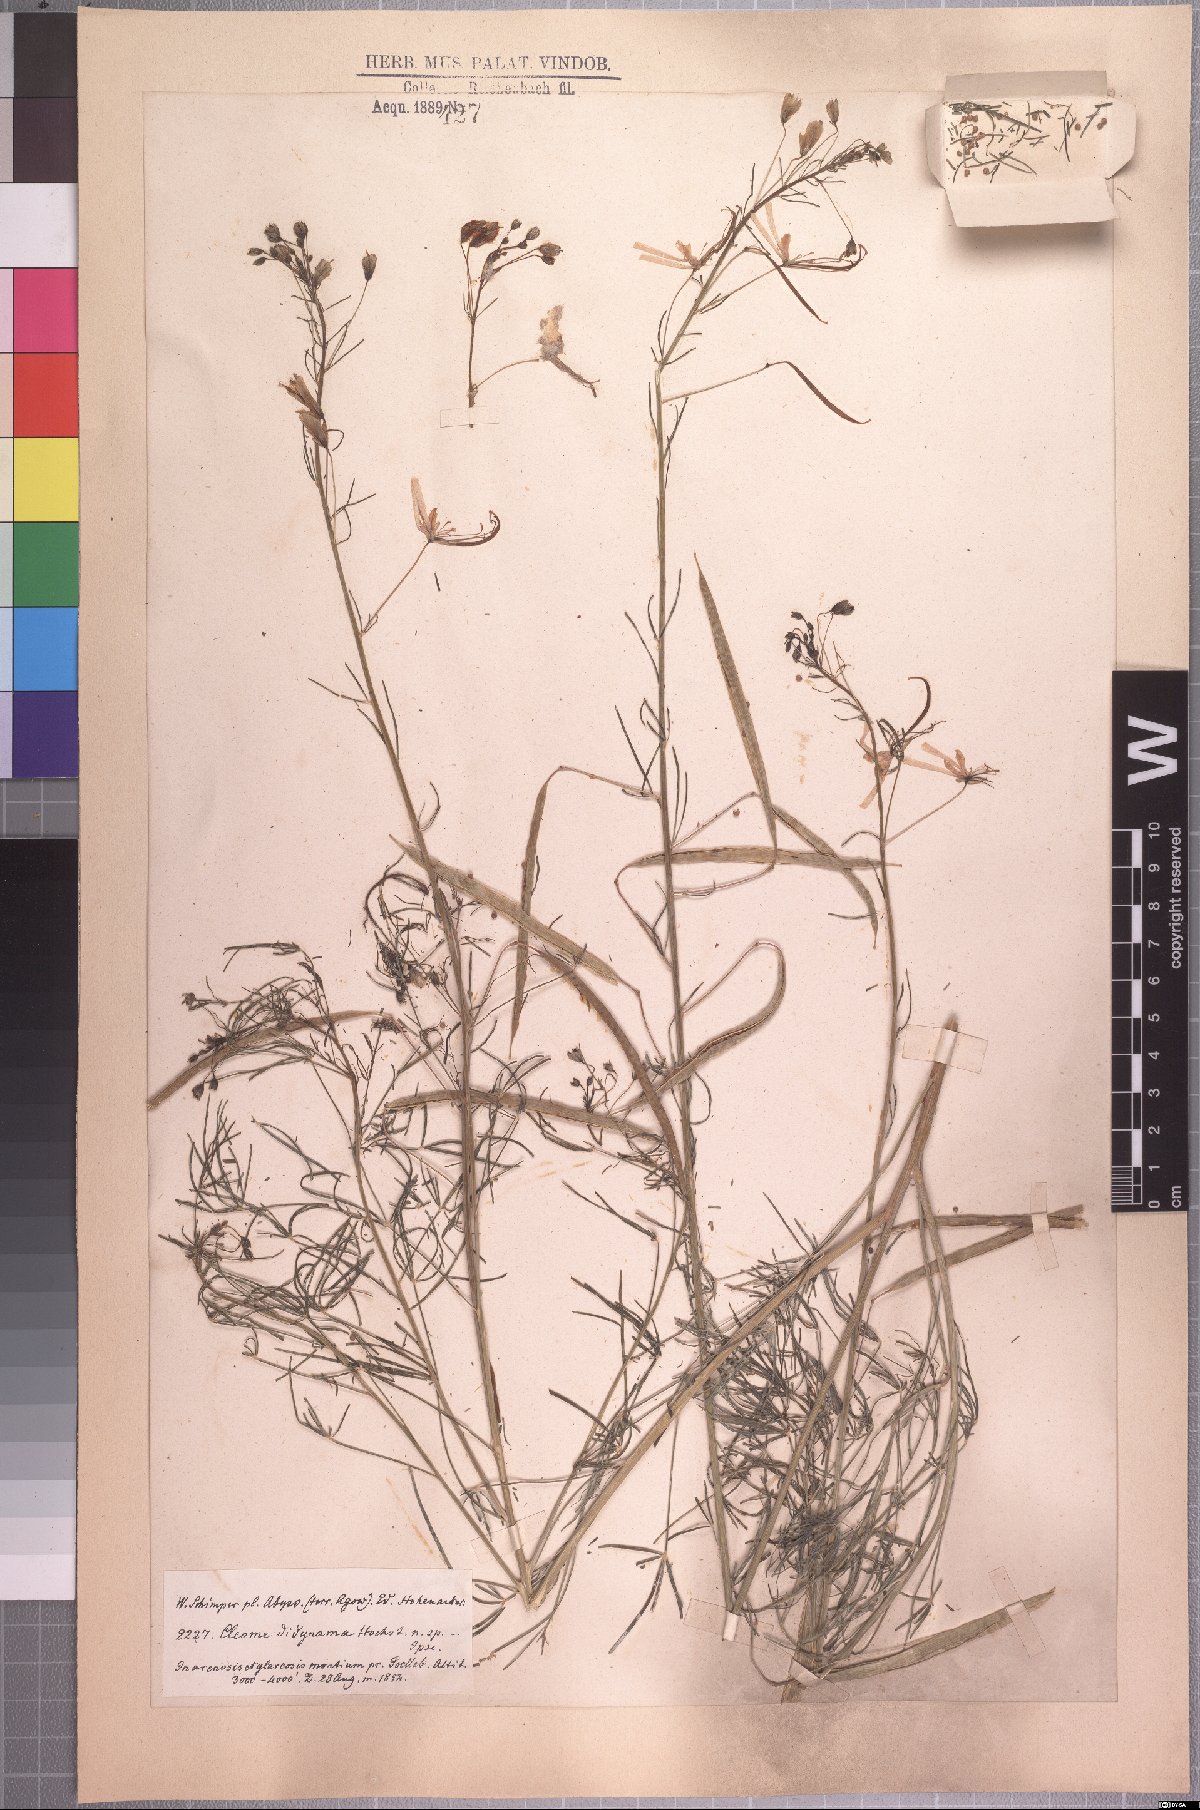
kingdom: Plantae
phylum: Tracheophyta
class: Magnoliopsida
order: Brassicales
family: Cleomaceae
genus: Coalisina
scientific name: Coalisina angustifolia
